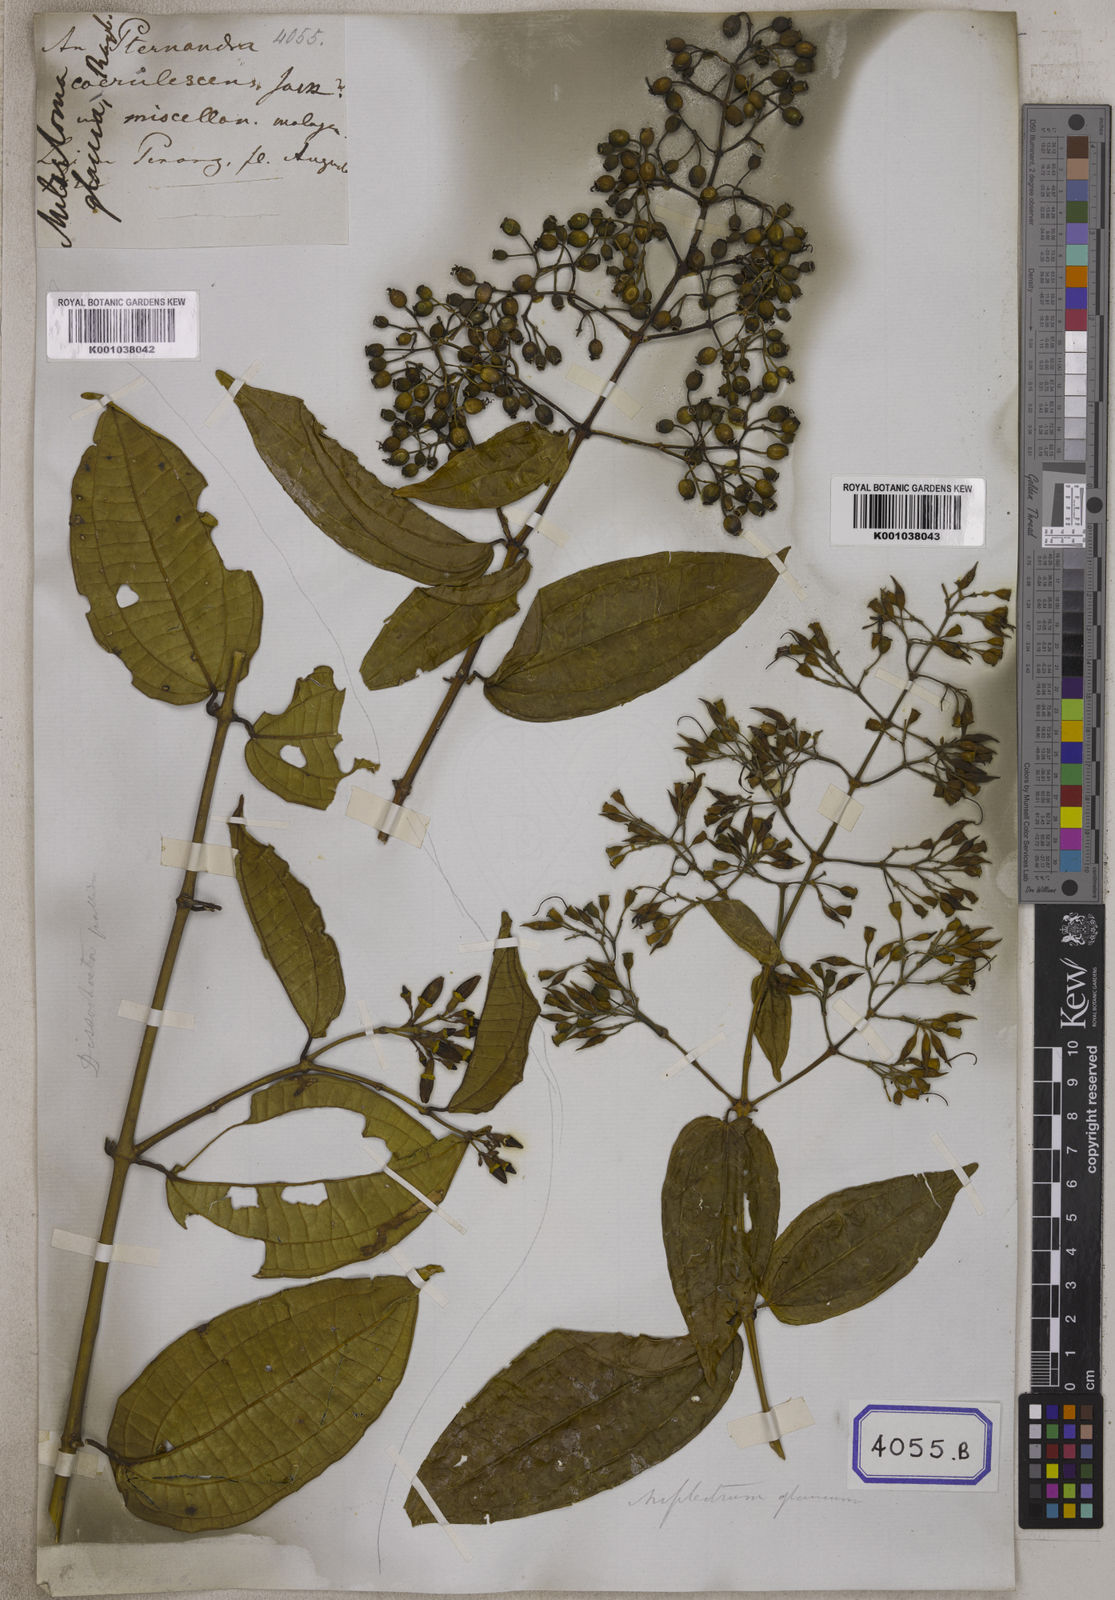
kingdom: Plantae
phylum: Tracheophyta
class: Magnoliopsida
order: Myrtales
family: Melastomataceae
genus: Osbeckia
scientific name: Osbeckia aspera
